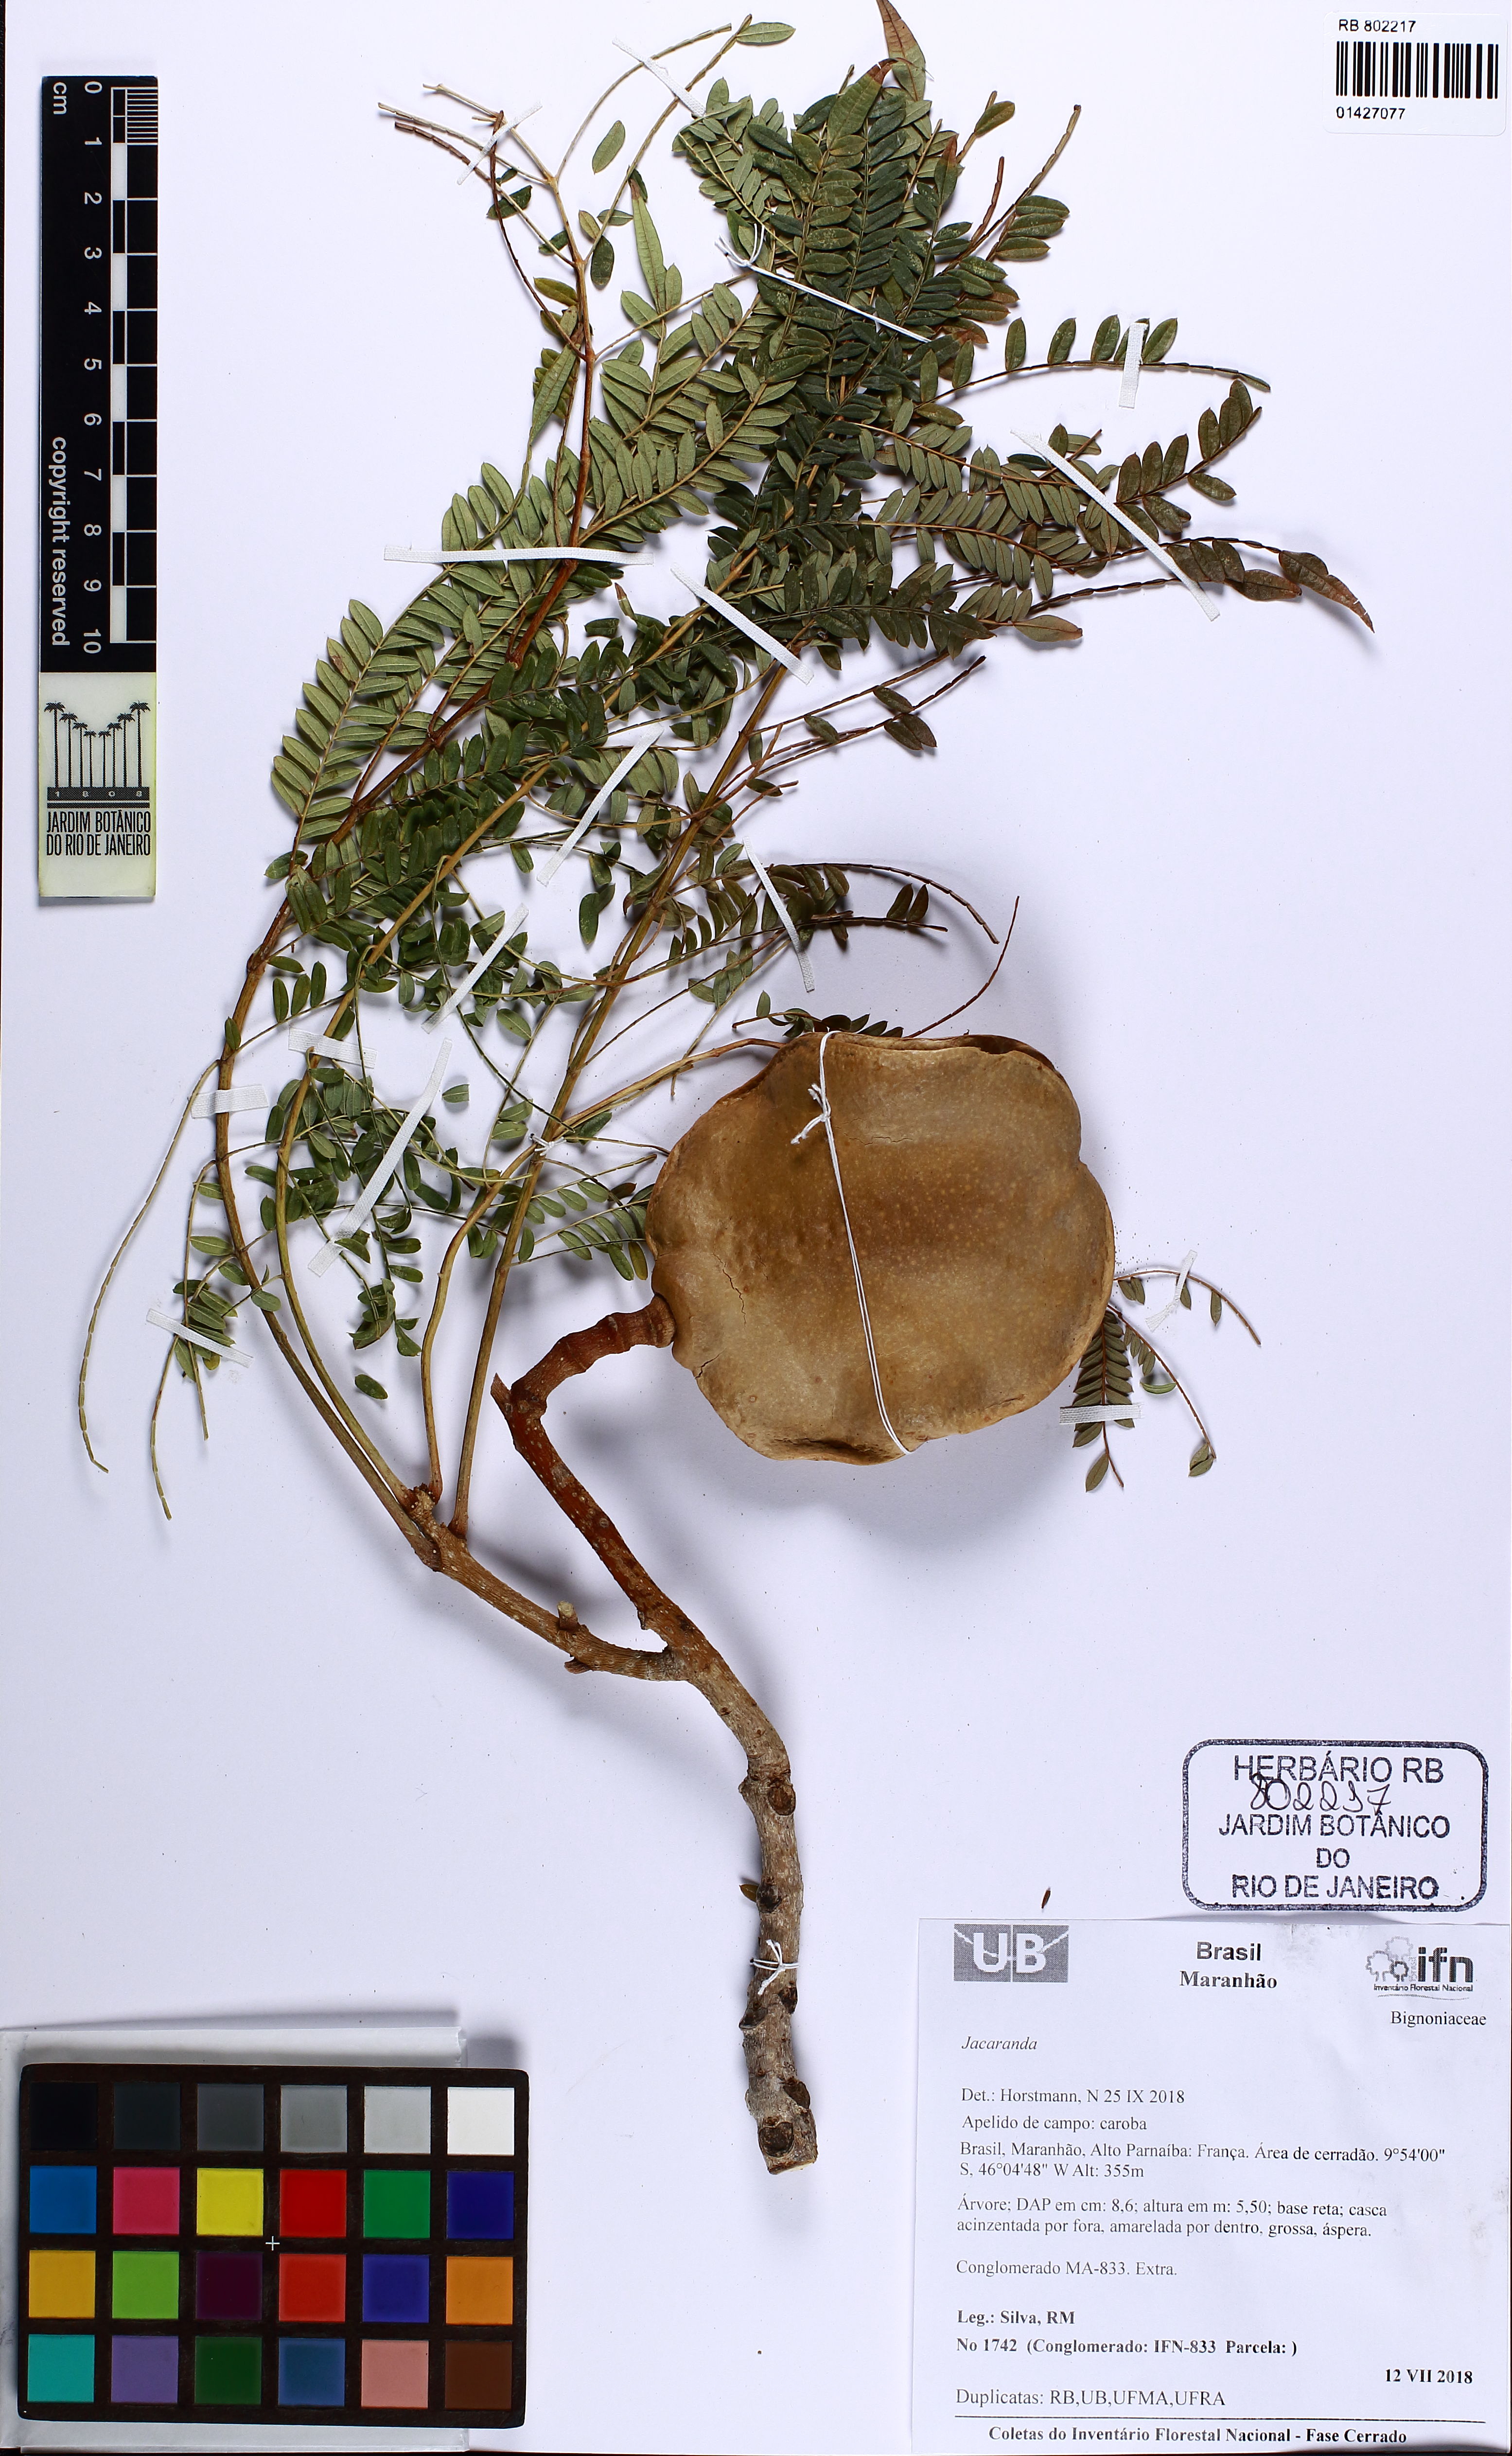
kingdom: Plantae
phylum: Tracheophyta
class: Magnoliopsida
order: Lamiales
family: Bignoniaceae
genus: Jacaranda
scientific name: Jacaranda
